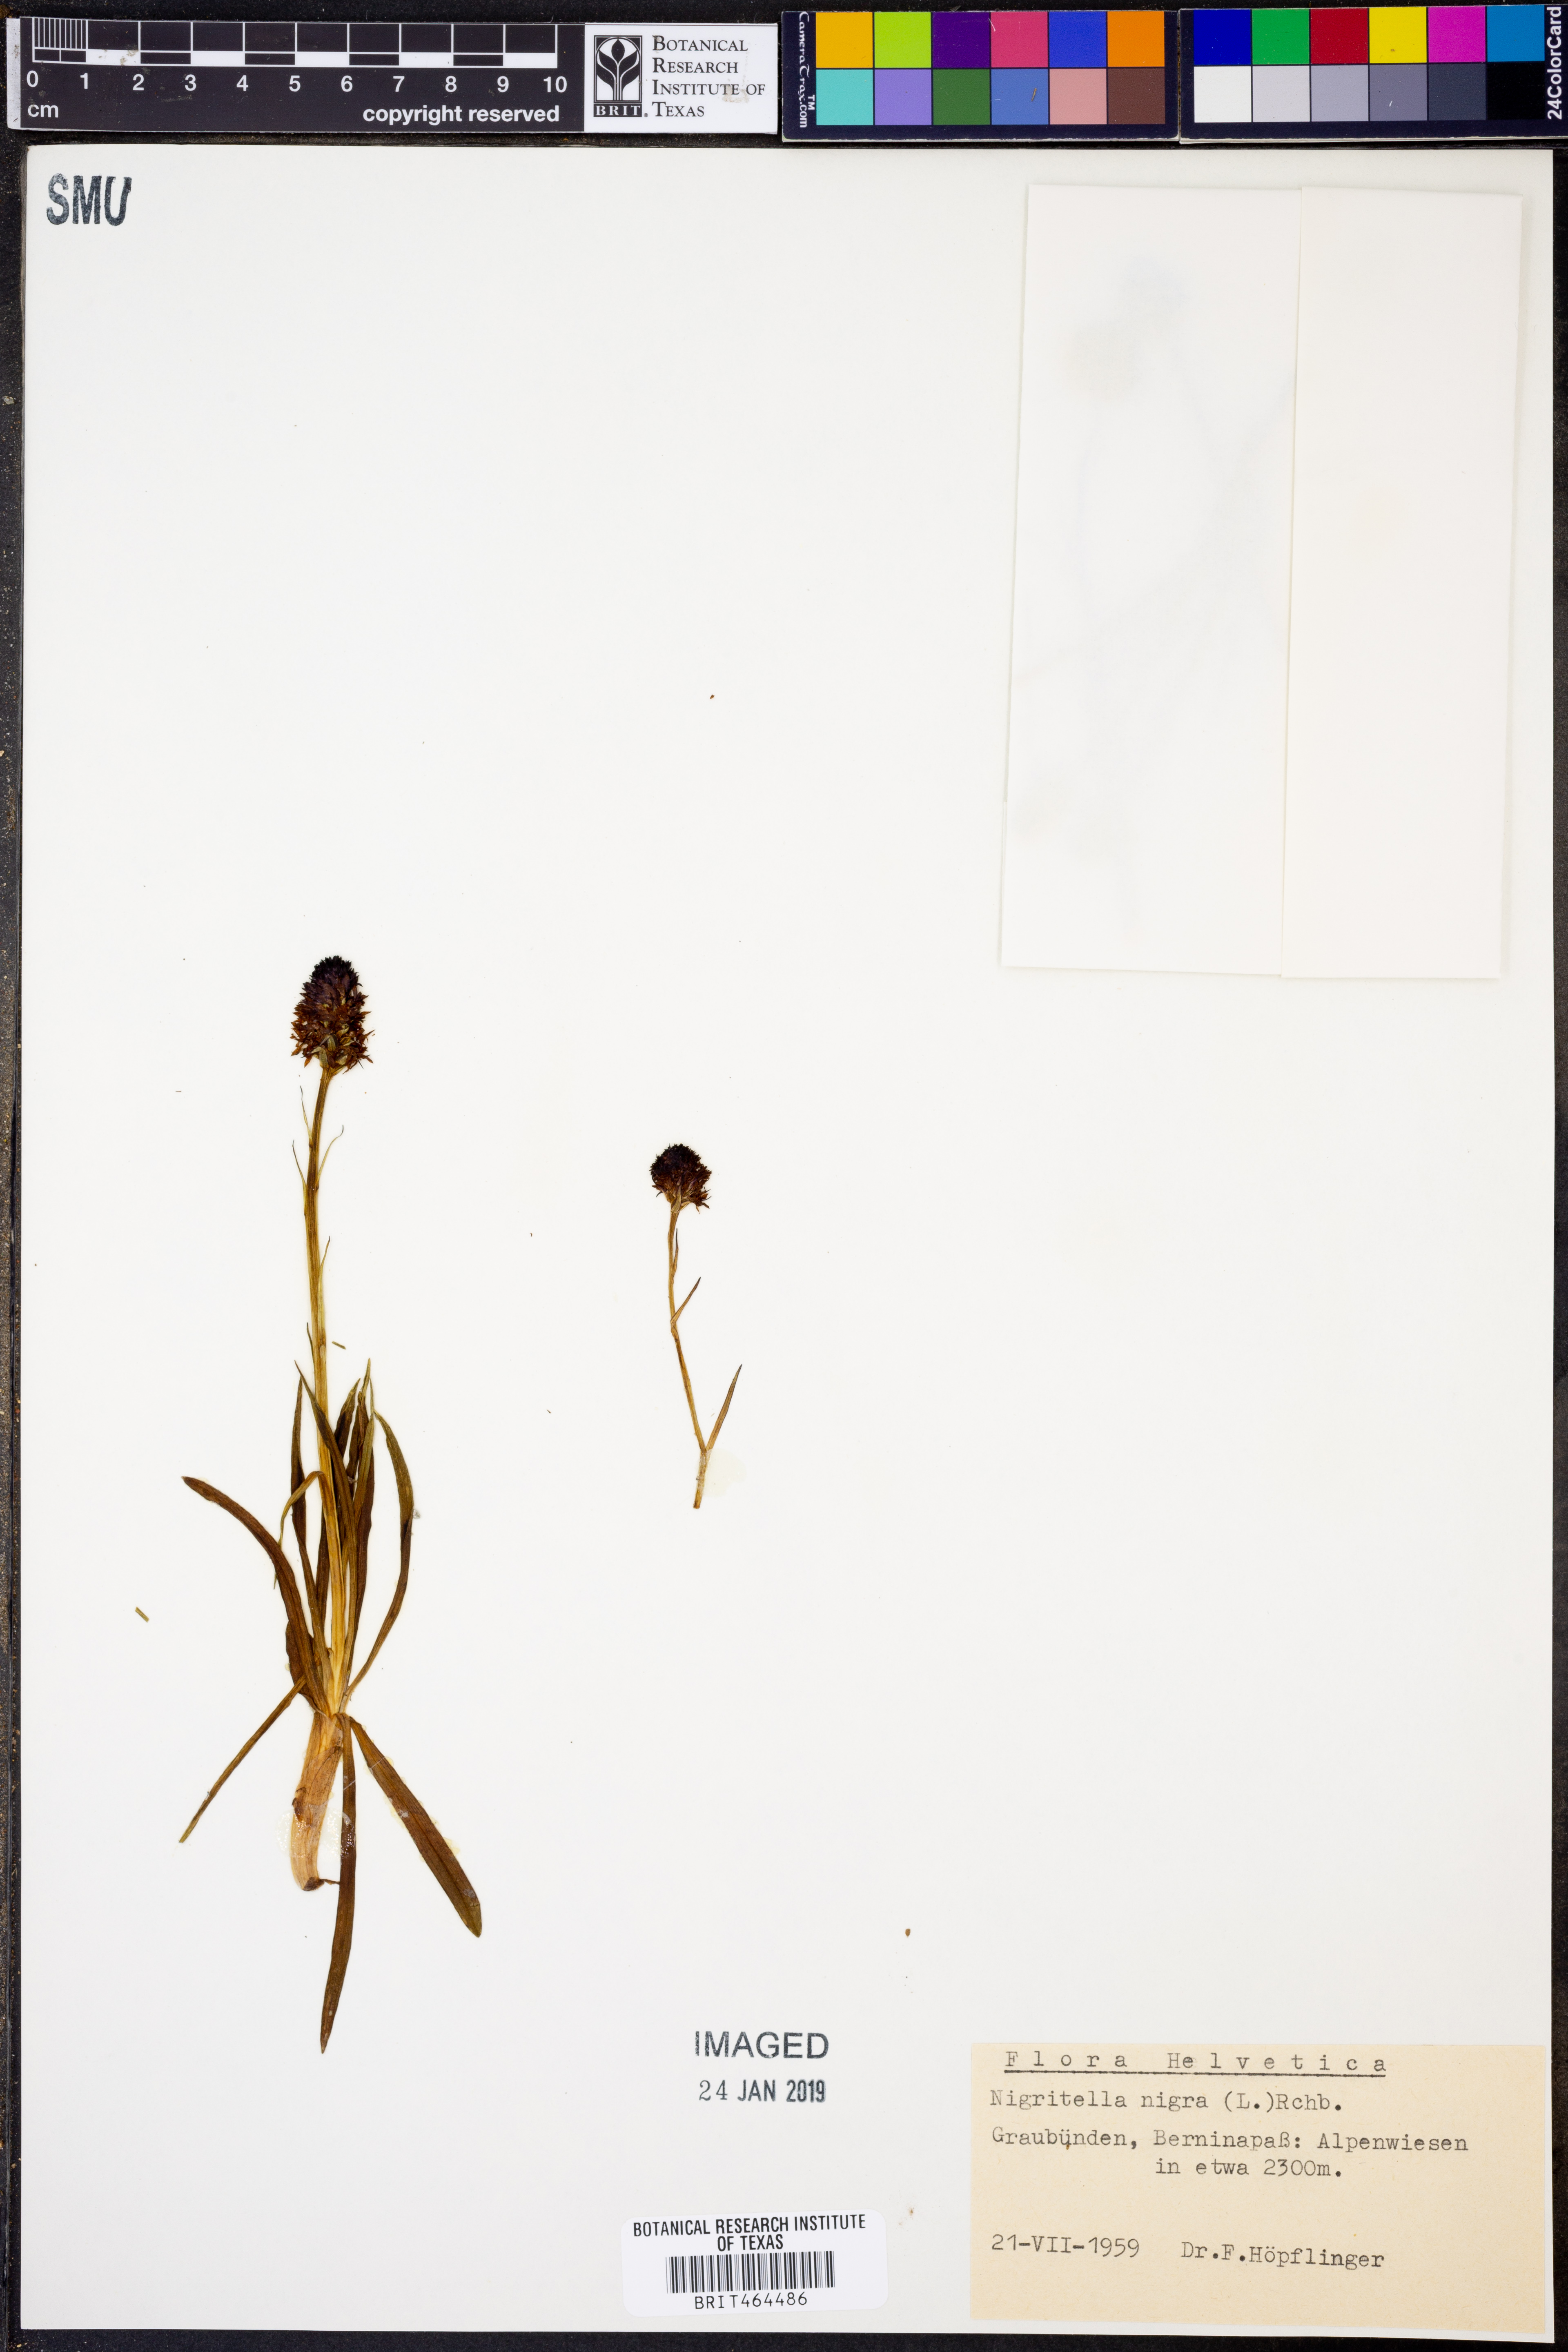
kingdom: Plantae
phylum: Tracheophyta
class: Liliopsida
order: Asparagales
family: Orchidaceae
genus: Gymnadenia
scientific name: Gymnadenia nigra
